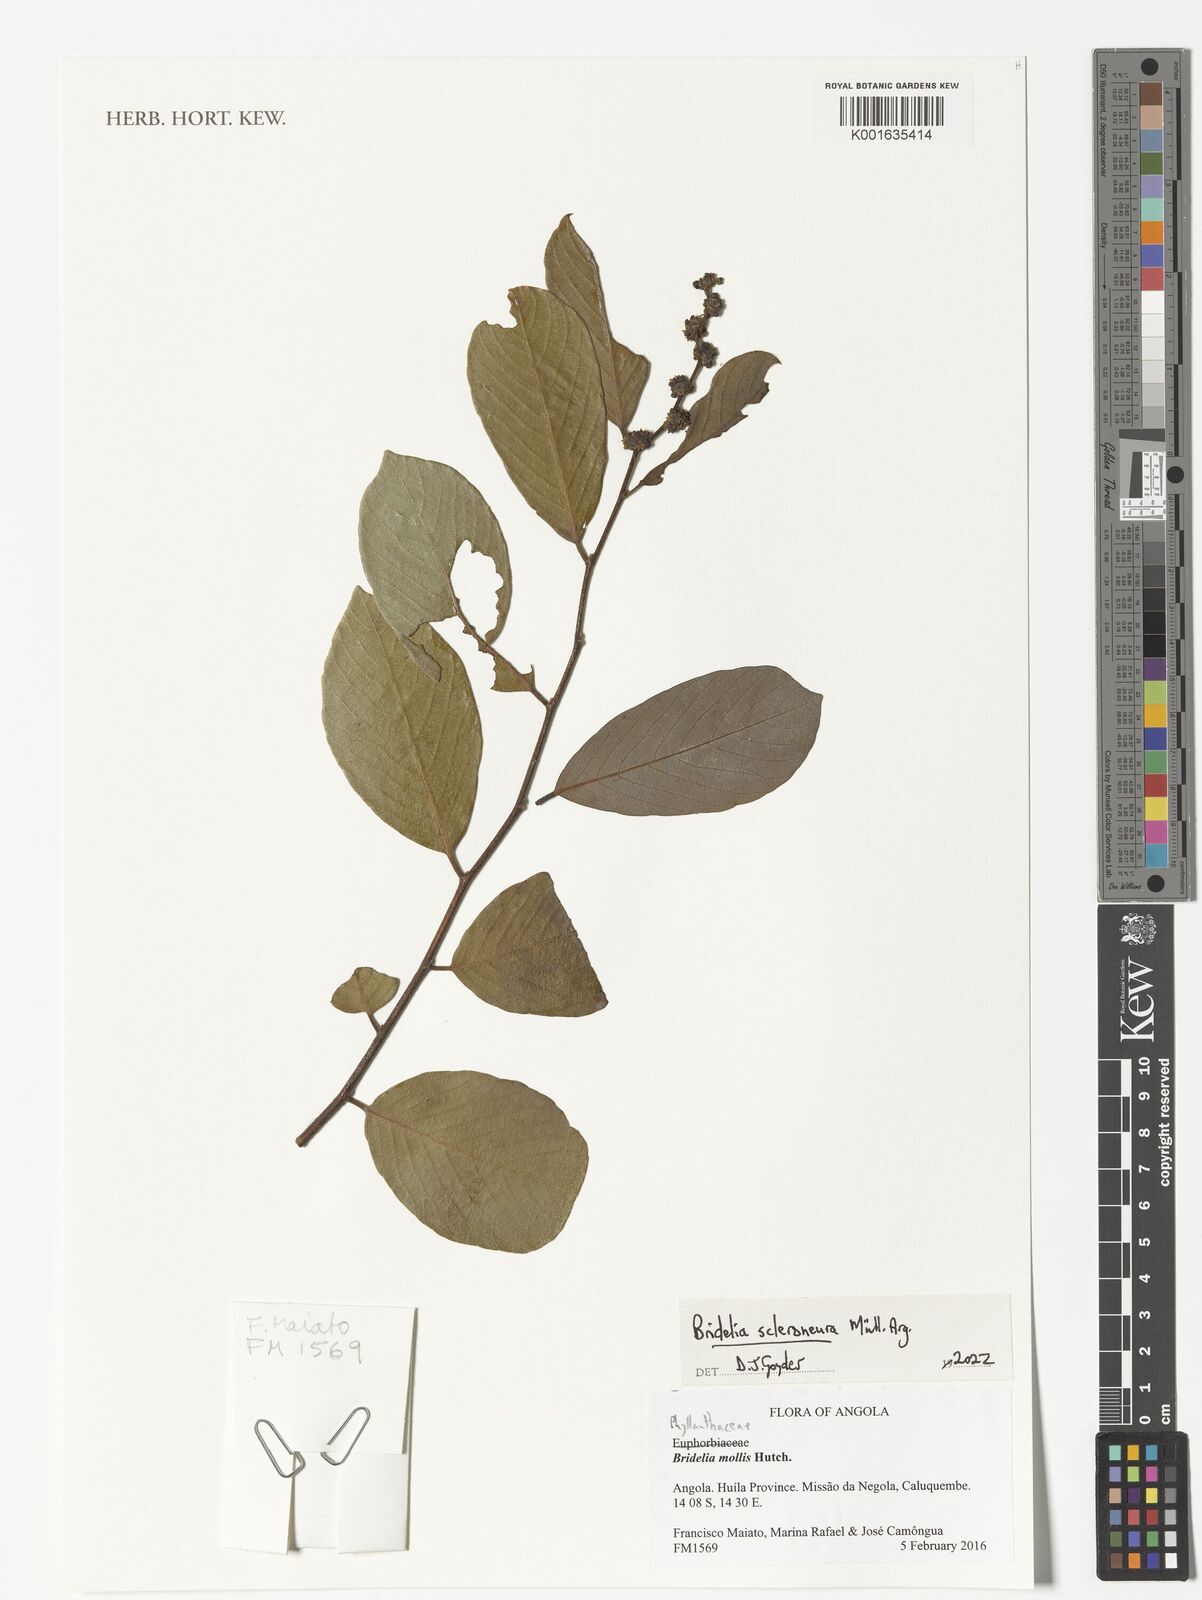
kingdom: Plantae
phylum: Tracheophyta
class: Magnoliopsida
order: Malpighiales
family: Phyllanthaceae
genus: Bridelia
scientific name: Bridelia scleroneura
